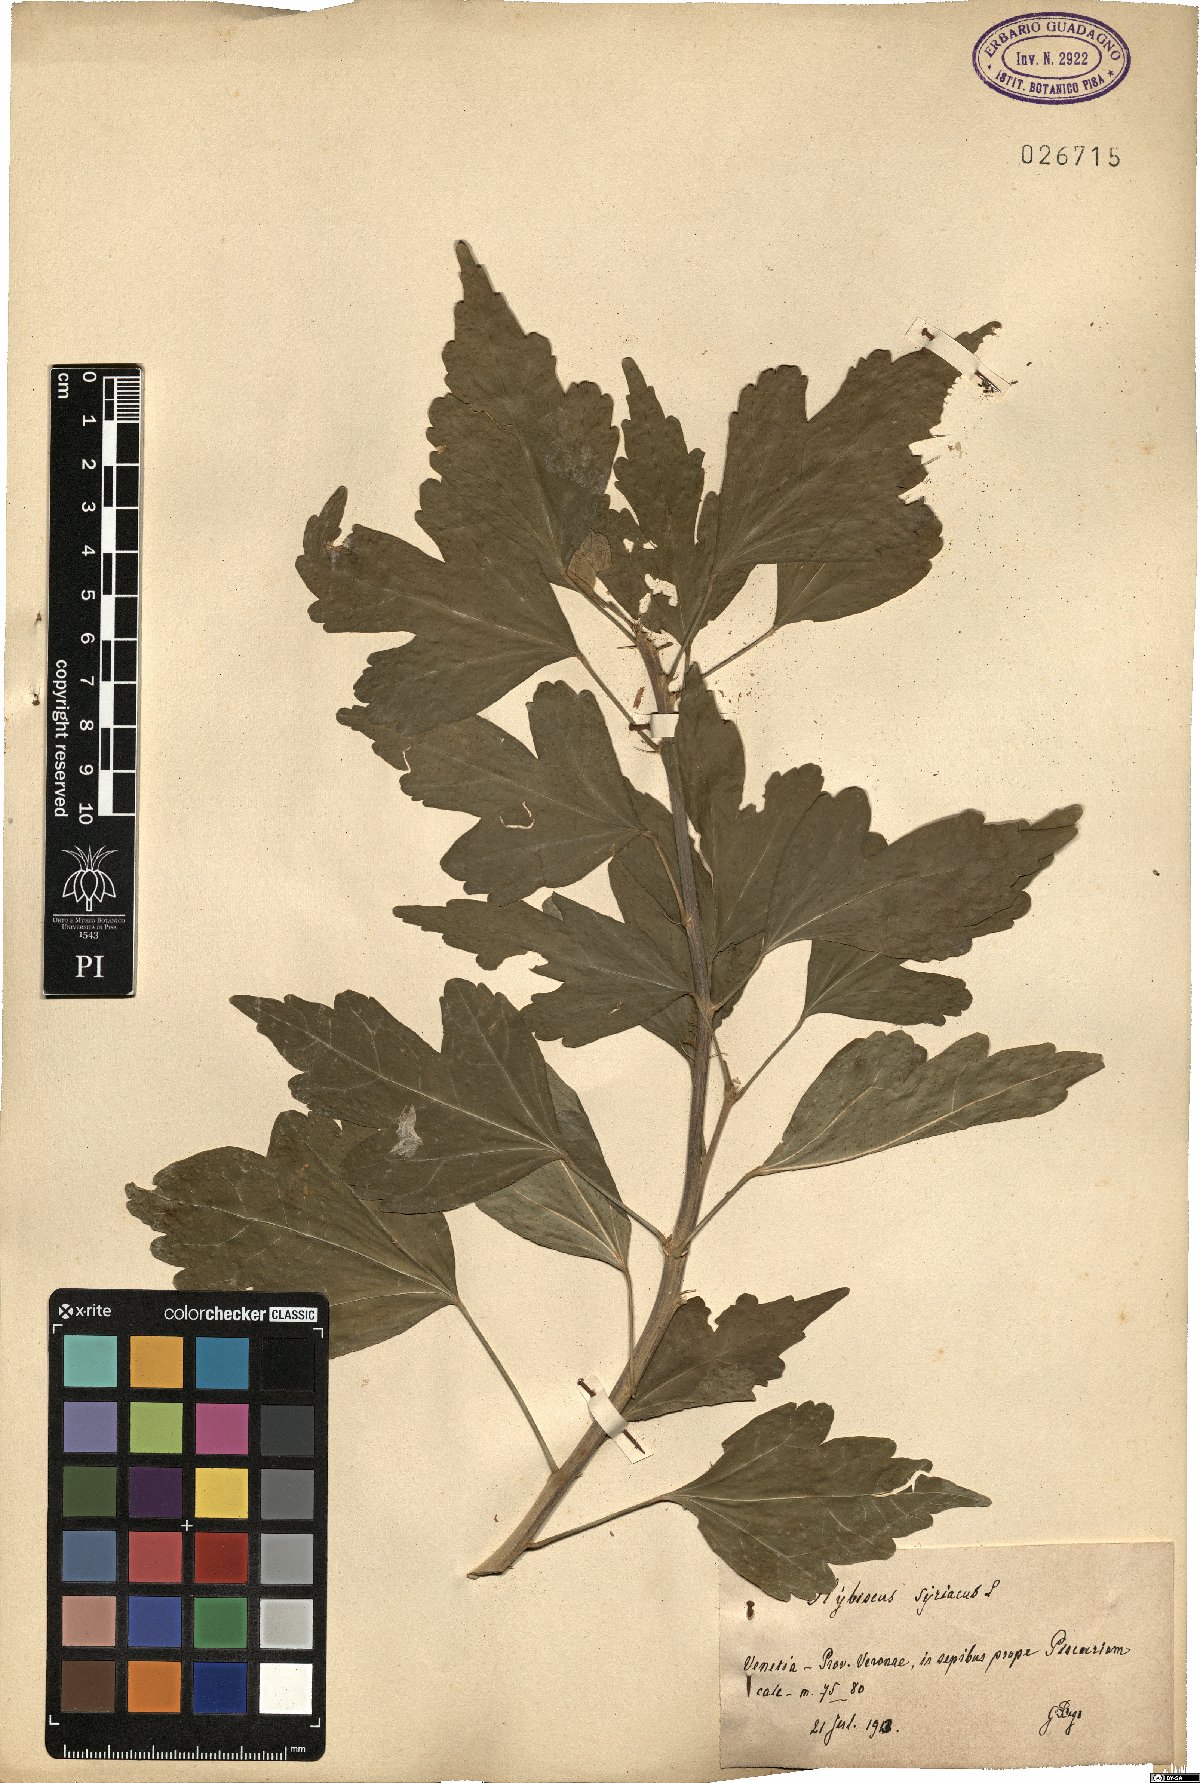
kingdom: Plantae
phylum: Tracheophyta
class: Magnoliopsida
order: Malvales
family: Malvaceae
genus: Hibiscus
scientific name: Hibiscus syriacus
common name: Syrian ketmia
